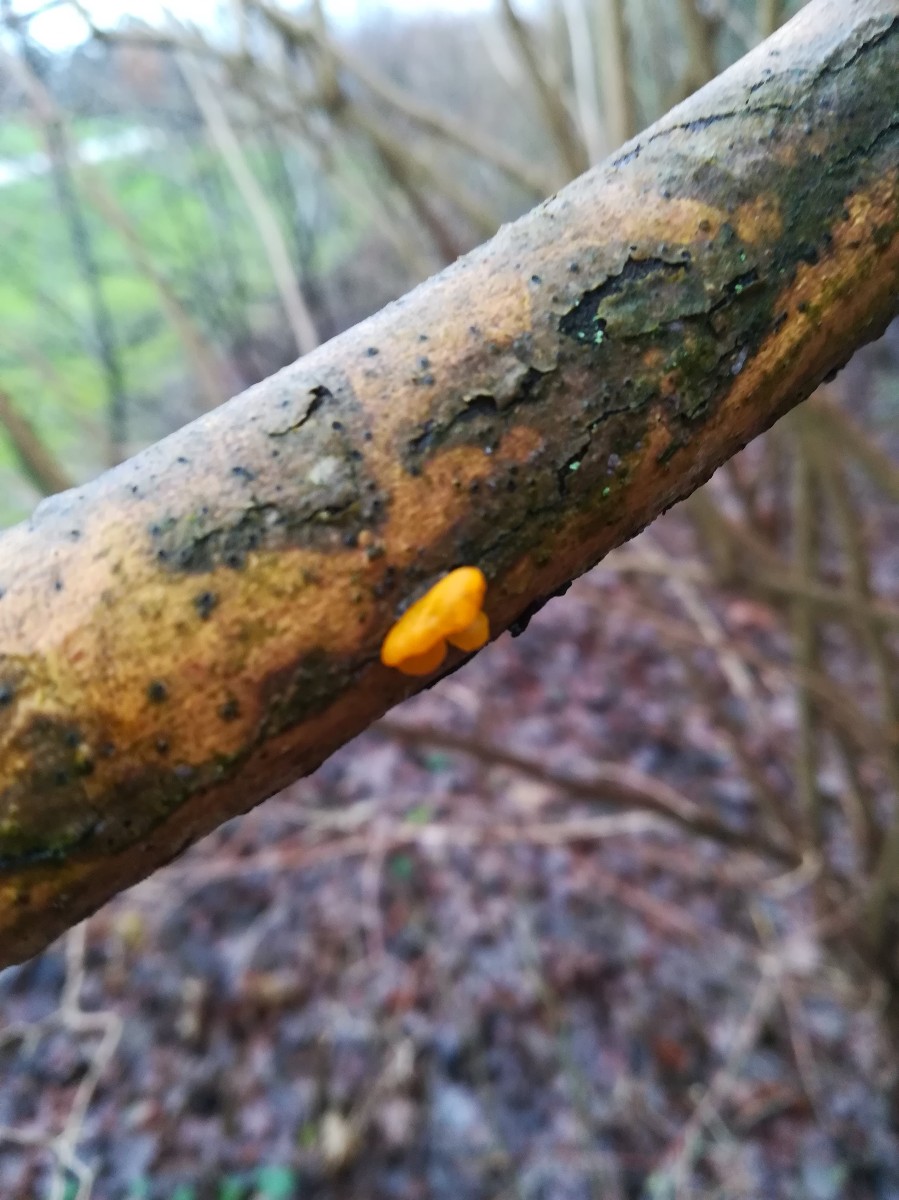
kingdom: Fungi
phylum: Basidiomycota
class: Tremellomycetes
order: Tremellales
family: Tremellaceae
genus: Tremella
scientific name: Tremella mesenterica
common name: gul bævresvamp
